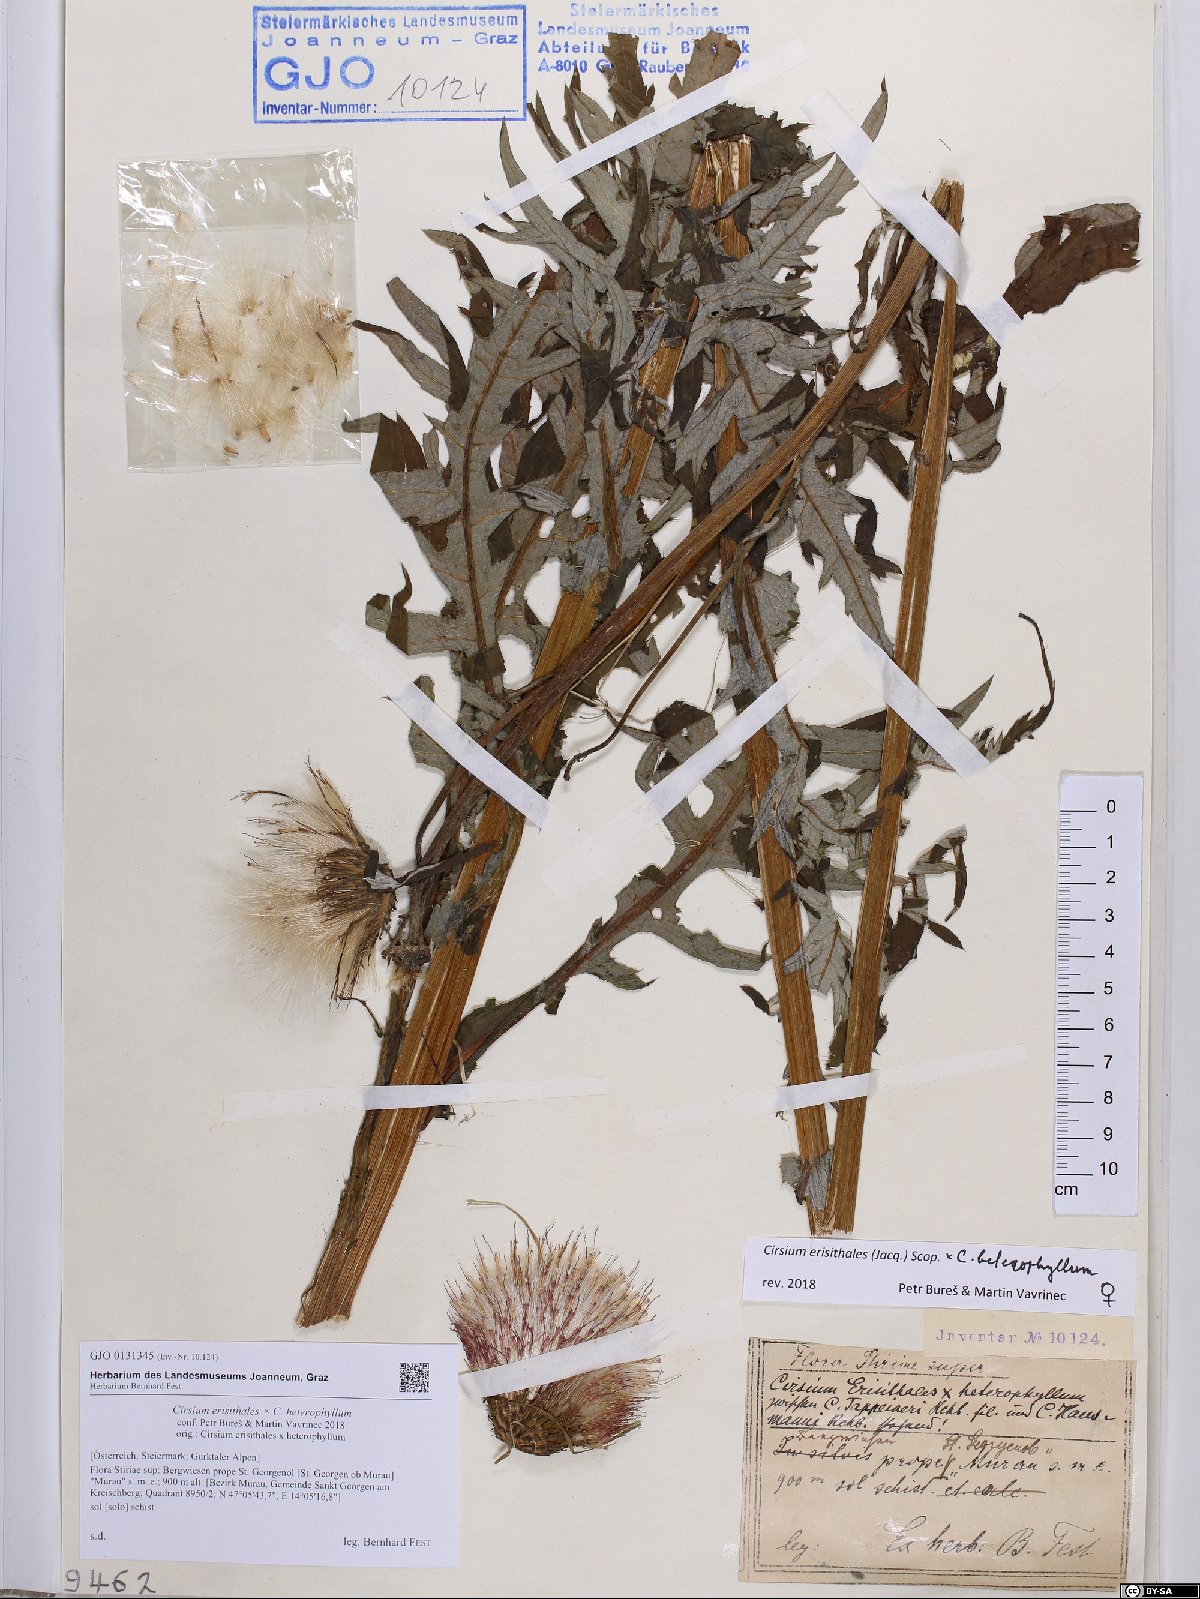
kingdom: Plantae
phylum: Tracheophyta
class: Magnoliopsida
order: Asterales
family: Asteraceae
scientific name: Asteraceae
